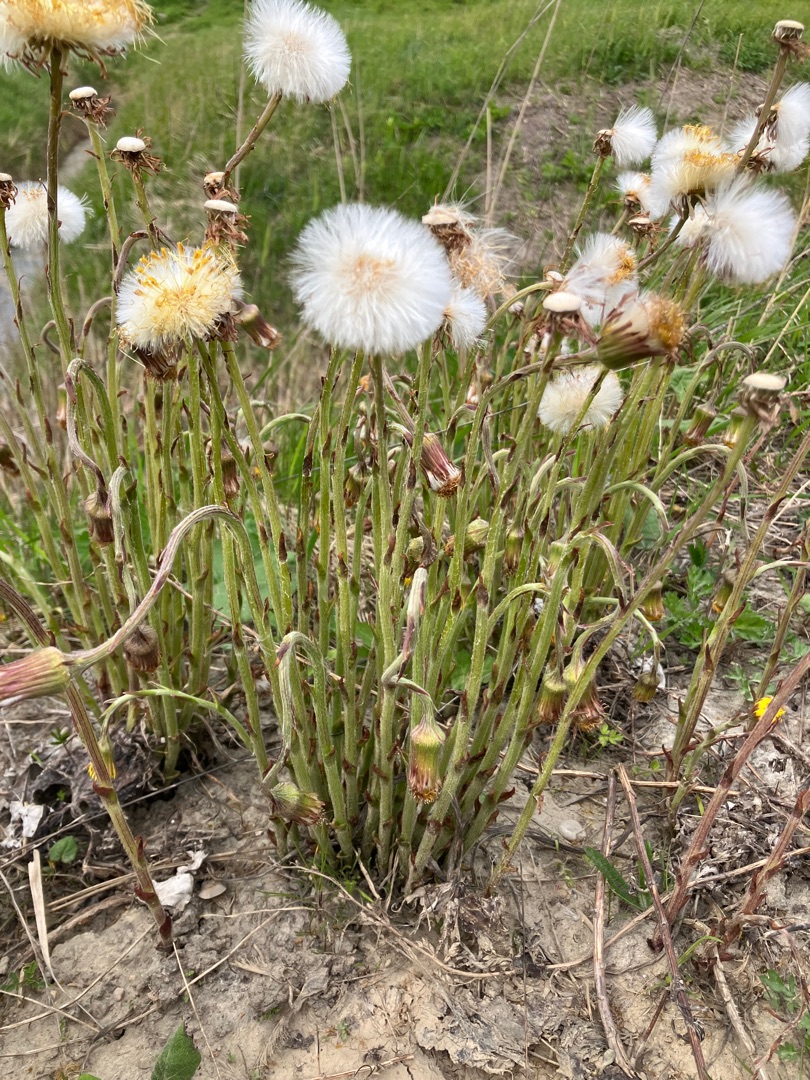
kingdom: Plantae
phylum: Tracheophyta
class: Magnoliopsida
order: Asterales
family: Asteraceae
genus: Tussilago
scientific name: Tussilago farfara
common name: Følfod
